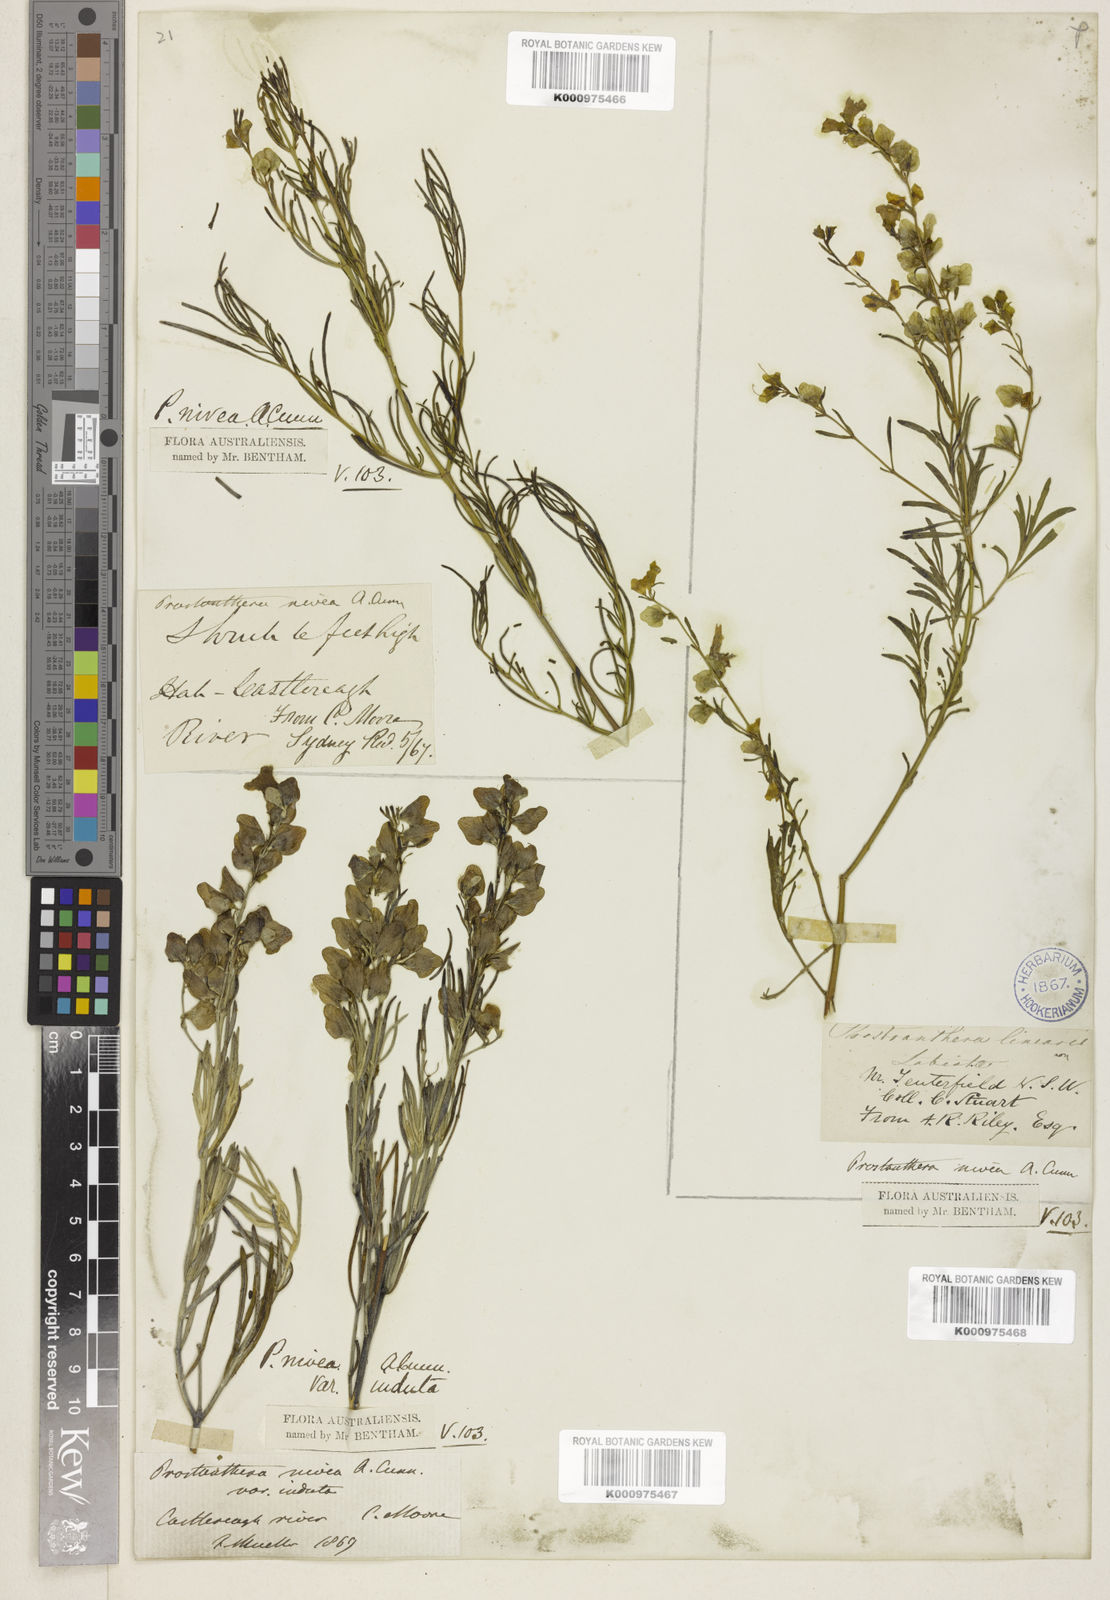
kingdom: Plantae
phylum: Tracheophyta
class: Magnoliopsida
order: Lamiales
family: Lamiaceae
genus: Prostanthera
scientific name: Prostanthera nivea
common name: Snowy mintbush
